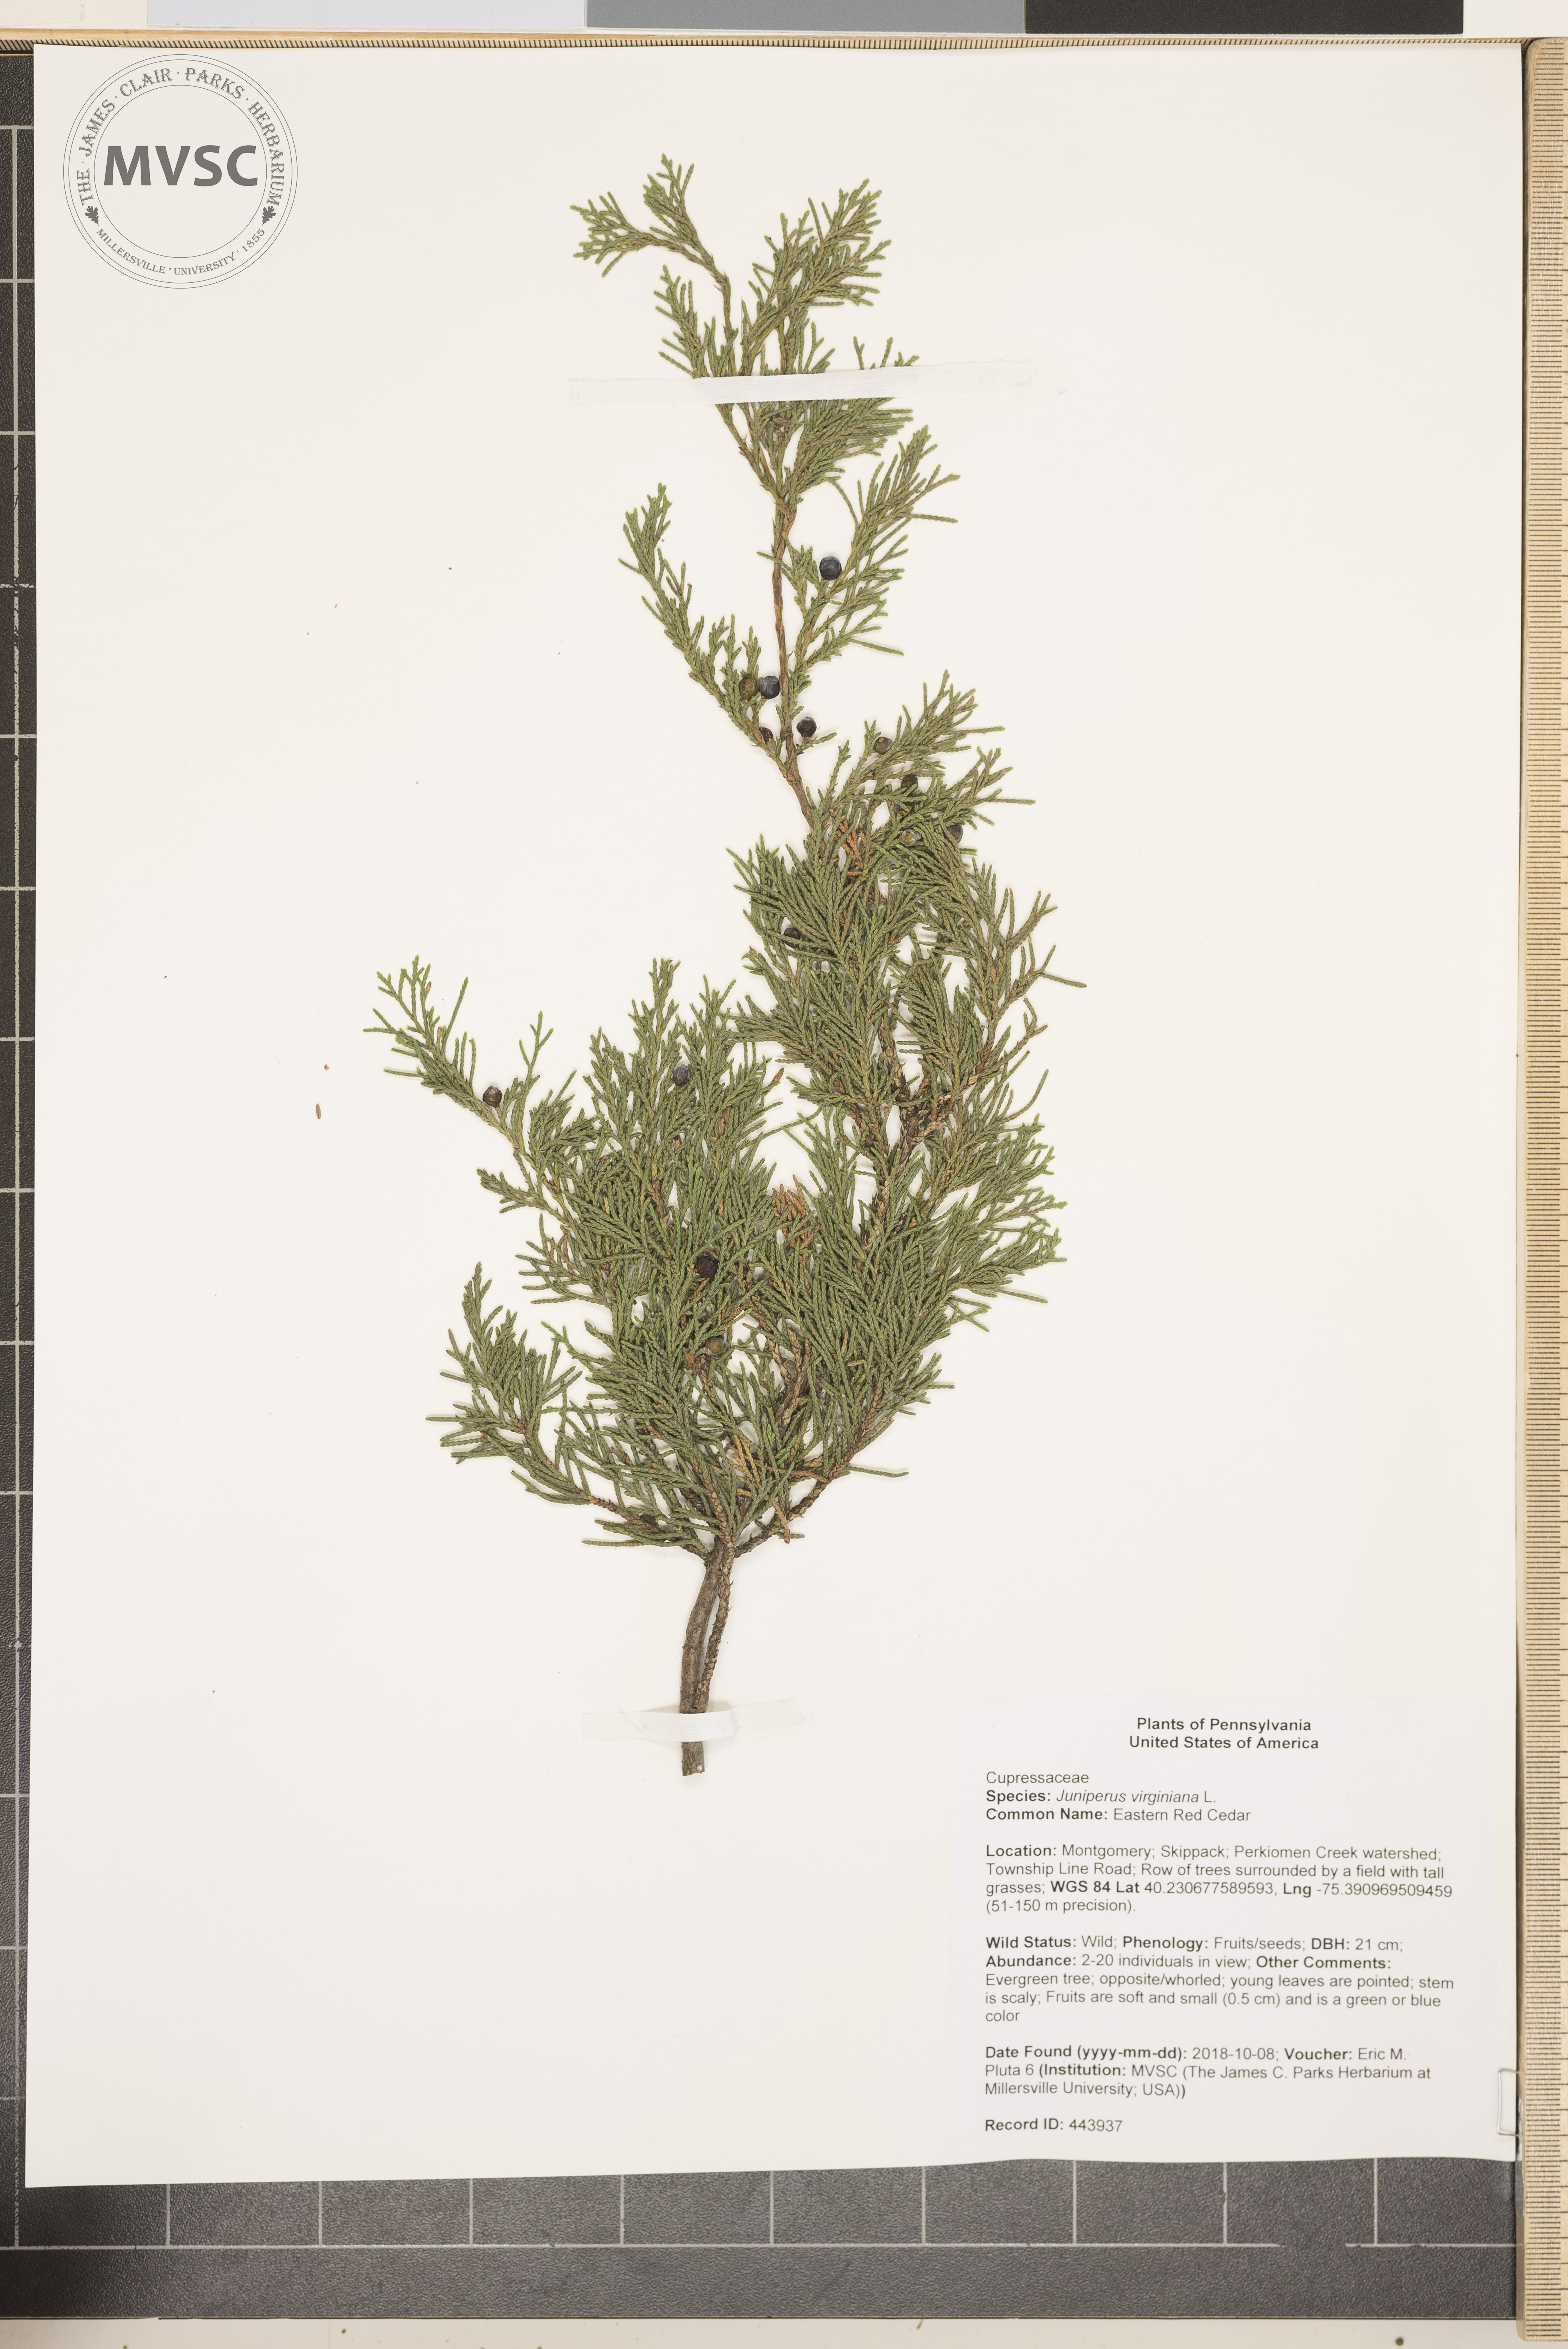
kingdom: Plantae
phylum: Tracheophyta
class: Pinopsida
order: Pinales
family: Cupressaceae
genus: Juniperus
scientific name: Juniperus virginiana
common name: Eastern Red Cedar
